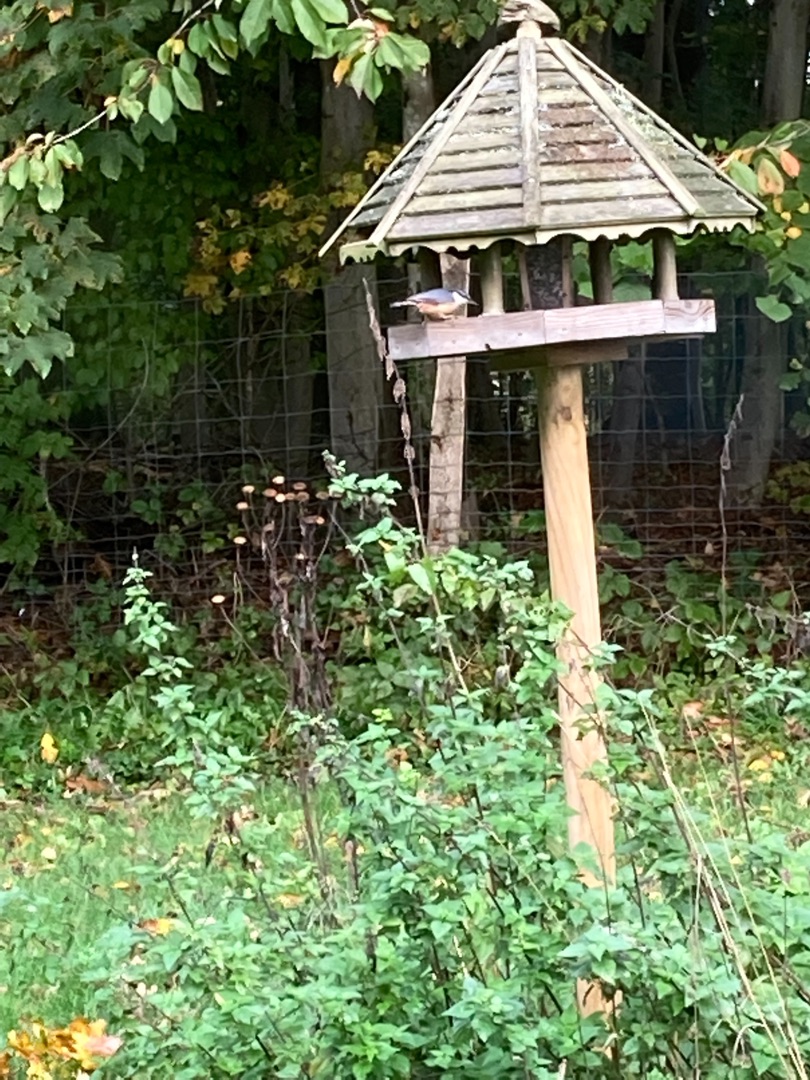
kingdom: Animalia
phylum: Chordata
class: Aves
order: Passeriformes
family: Sittidae
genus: Sitta
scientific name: Sitta europaea
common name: Spætmejse
